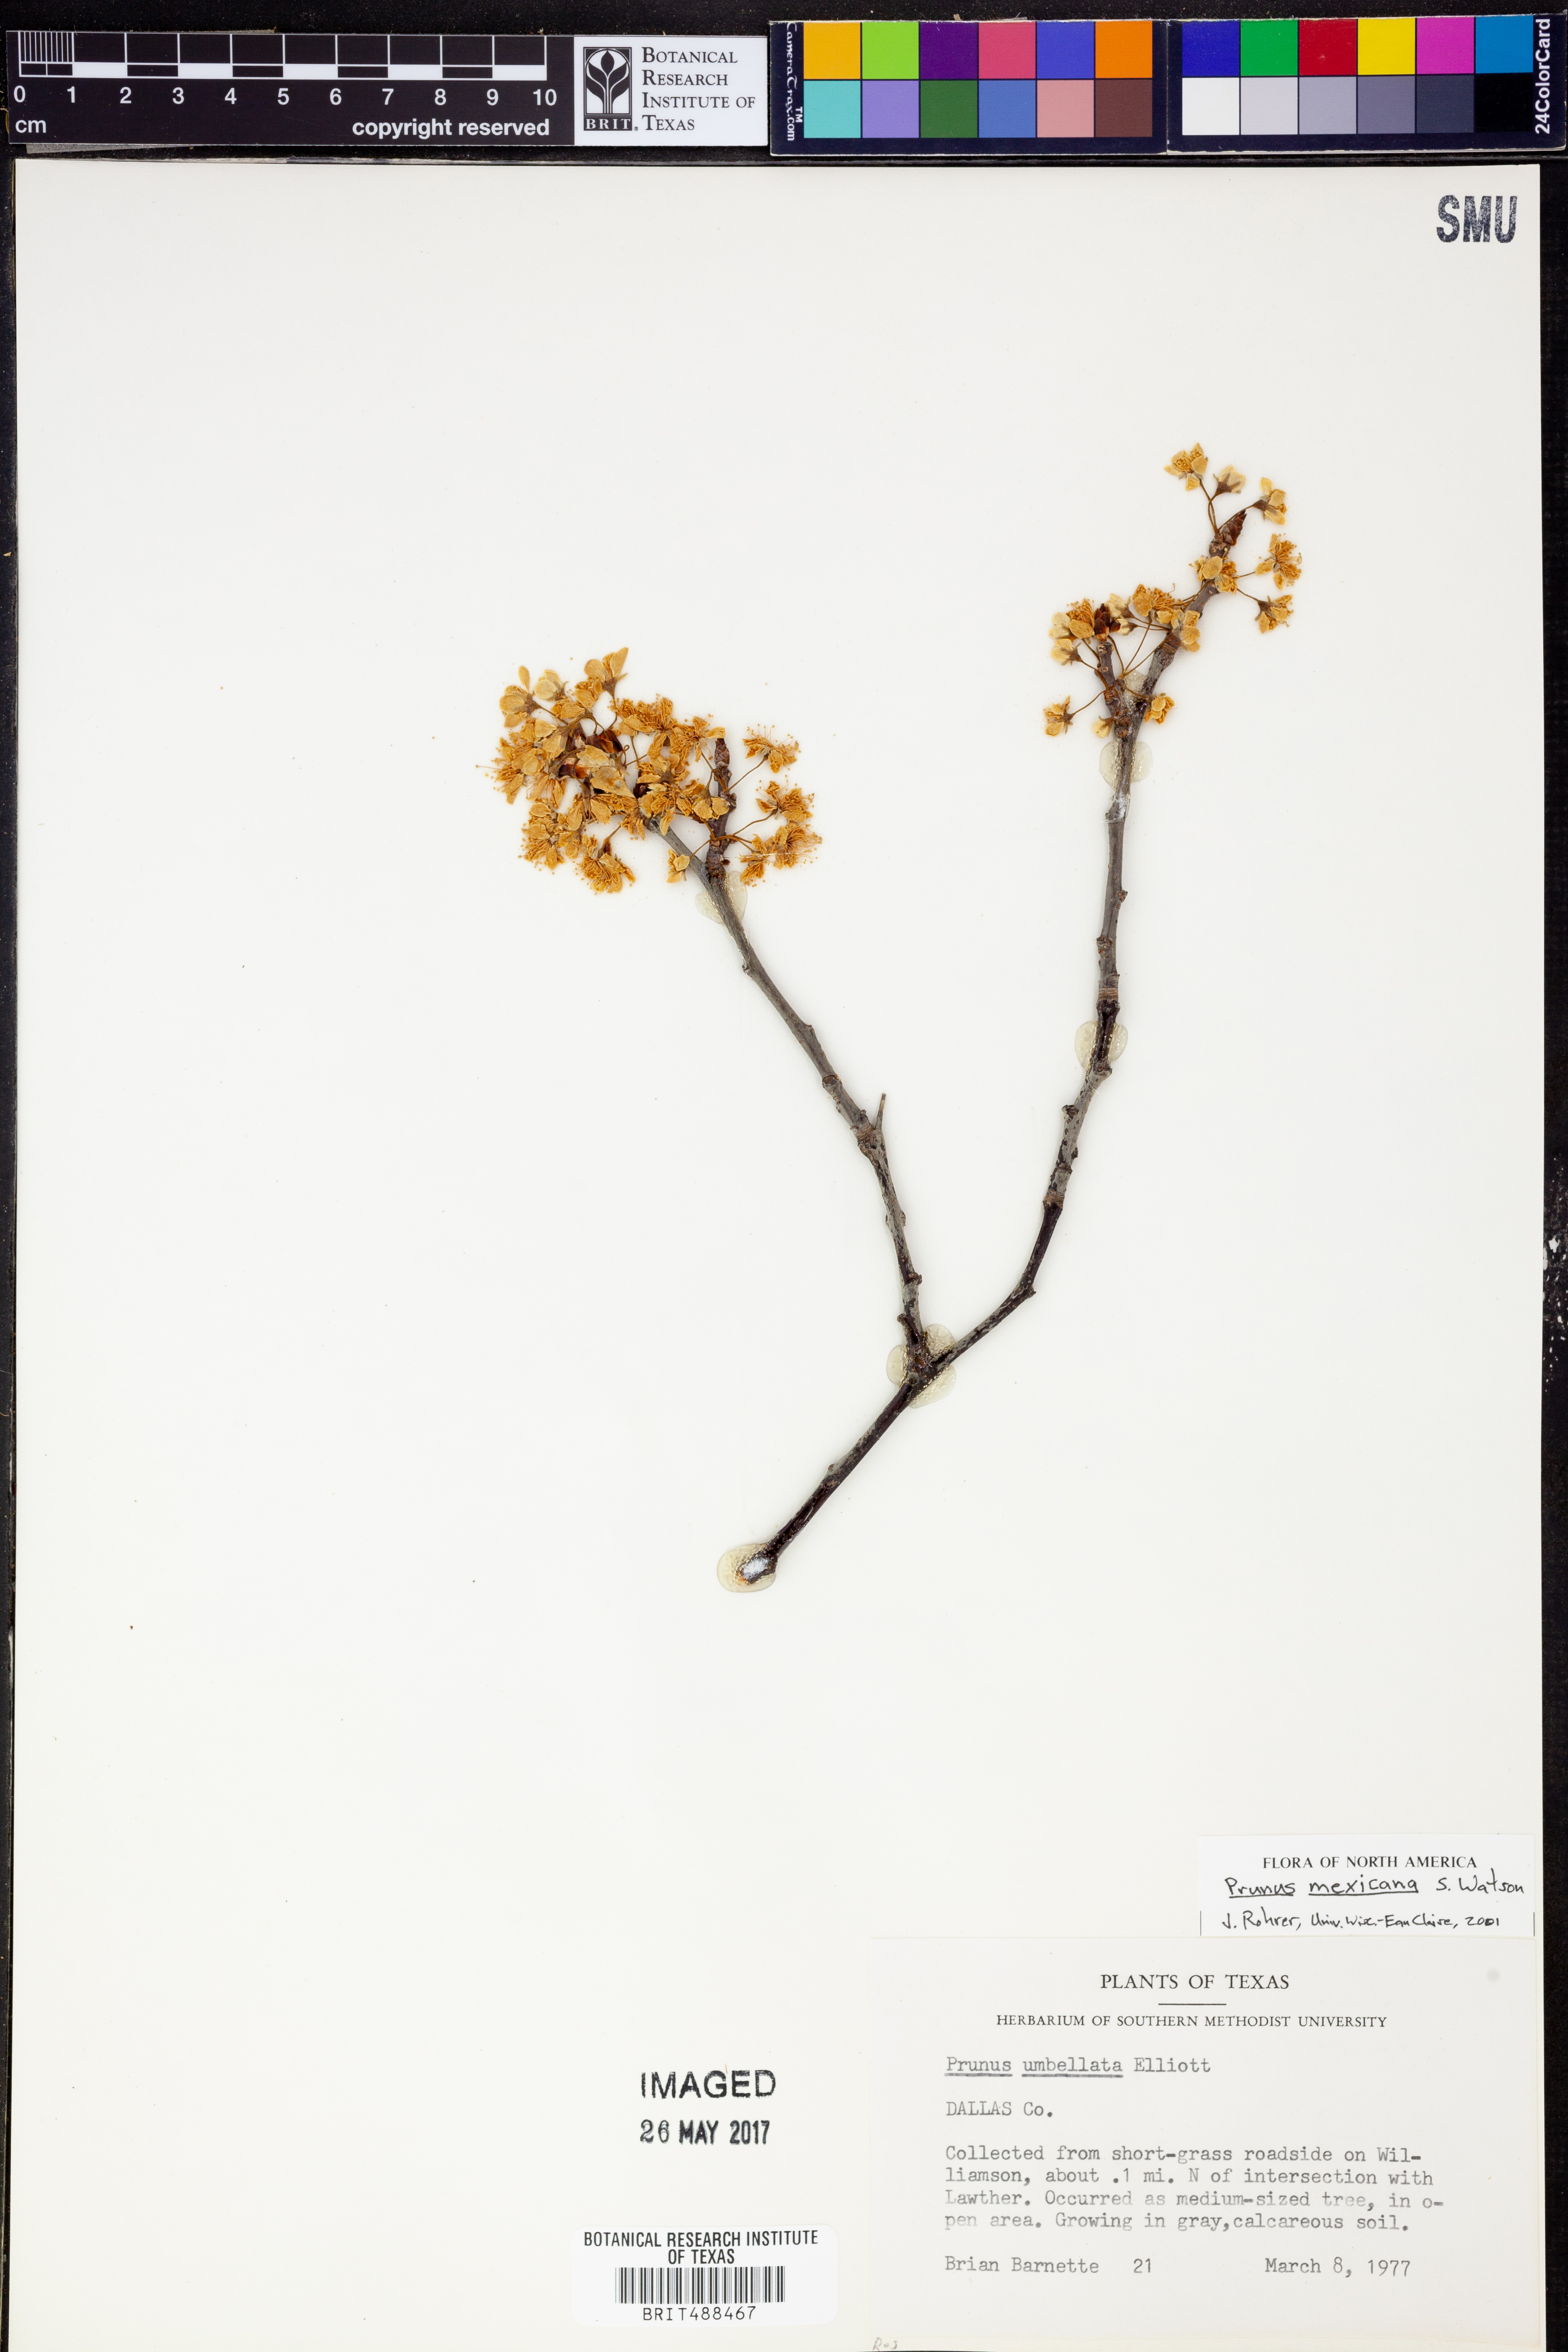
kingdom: Plantae
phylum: Tracheophyta
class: Magnoliopsida
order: Rosales
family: Rosaceae
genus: Prunus
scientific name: Prunus mexicana
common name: Mexican plum
